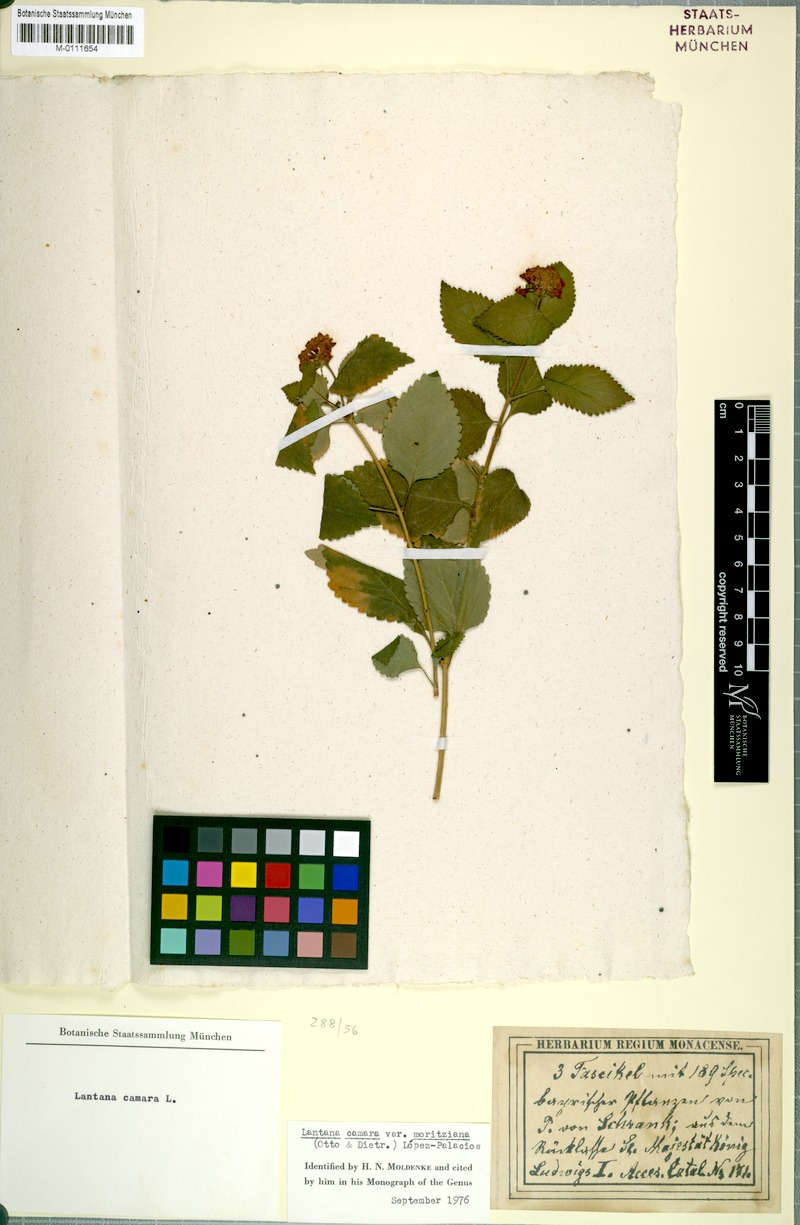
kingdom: Plantae
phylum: Tracheophyta
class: Magnoliopsida
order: Lamiales
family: Verbenaceae
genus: Lantana
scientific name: Lantana camara
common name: Lantana
